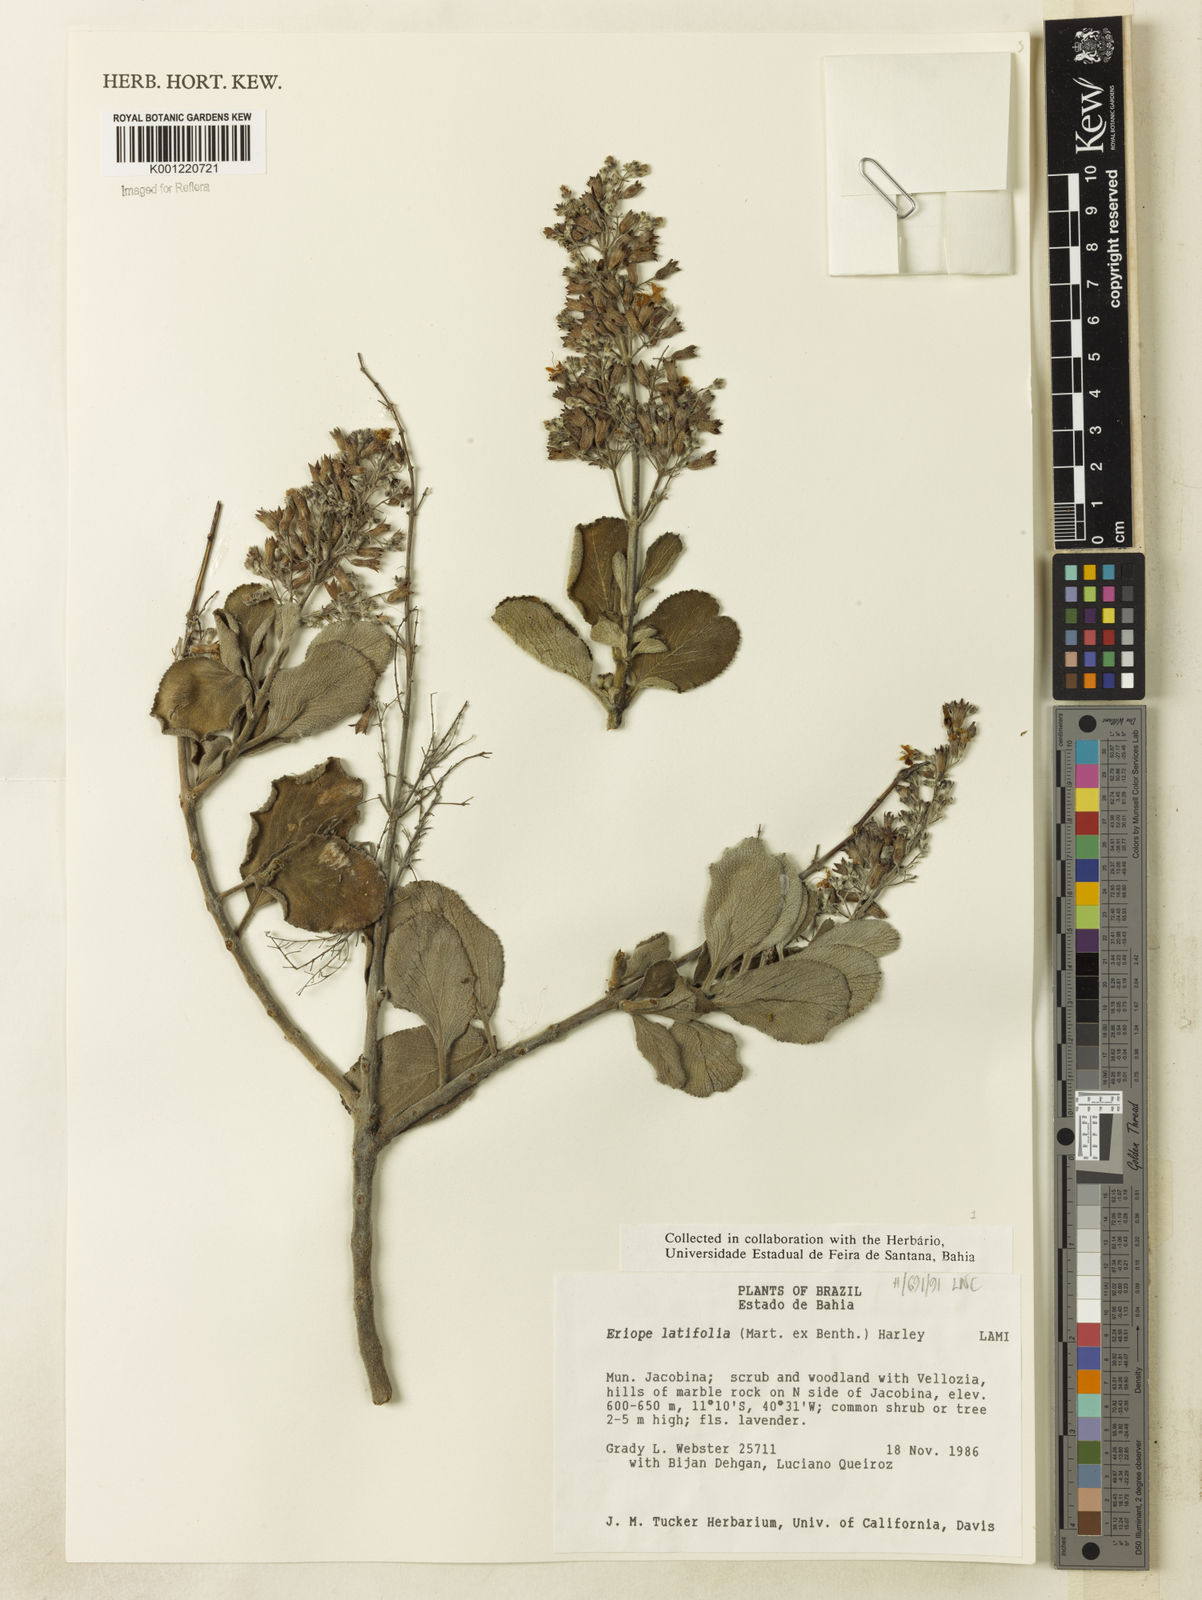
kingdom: Plantae
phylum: Tracheophyta
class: Magnoliopsida
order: Lamiales
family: Lamiaceae
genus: Eriope
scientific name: Eriope latifolia
